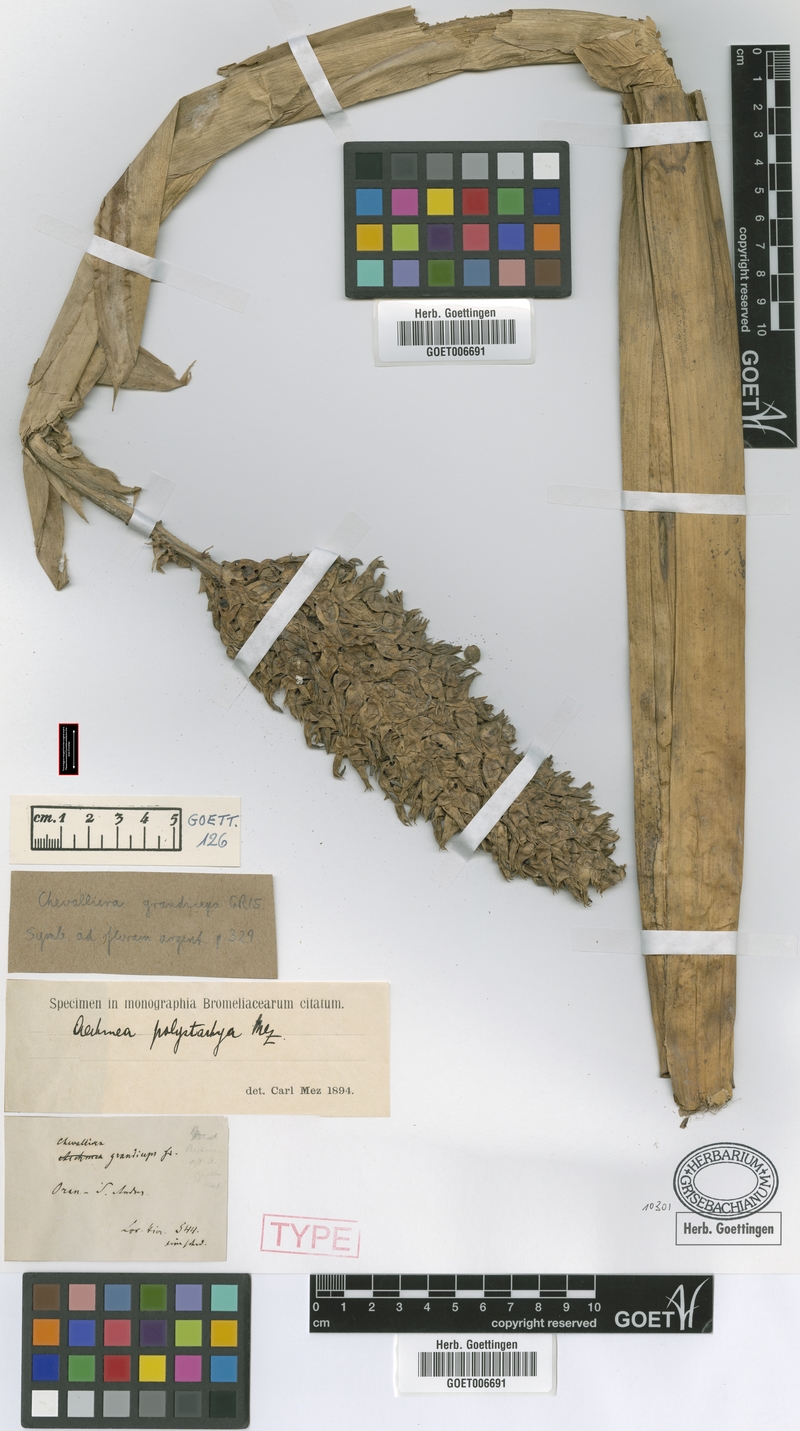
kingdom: Plantae
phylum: Tracheophyta
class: Liliopsida
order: Poales
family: Bromeliaceae
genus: Aechmea
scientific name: Aechmea distichantha
